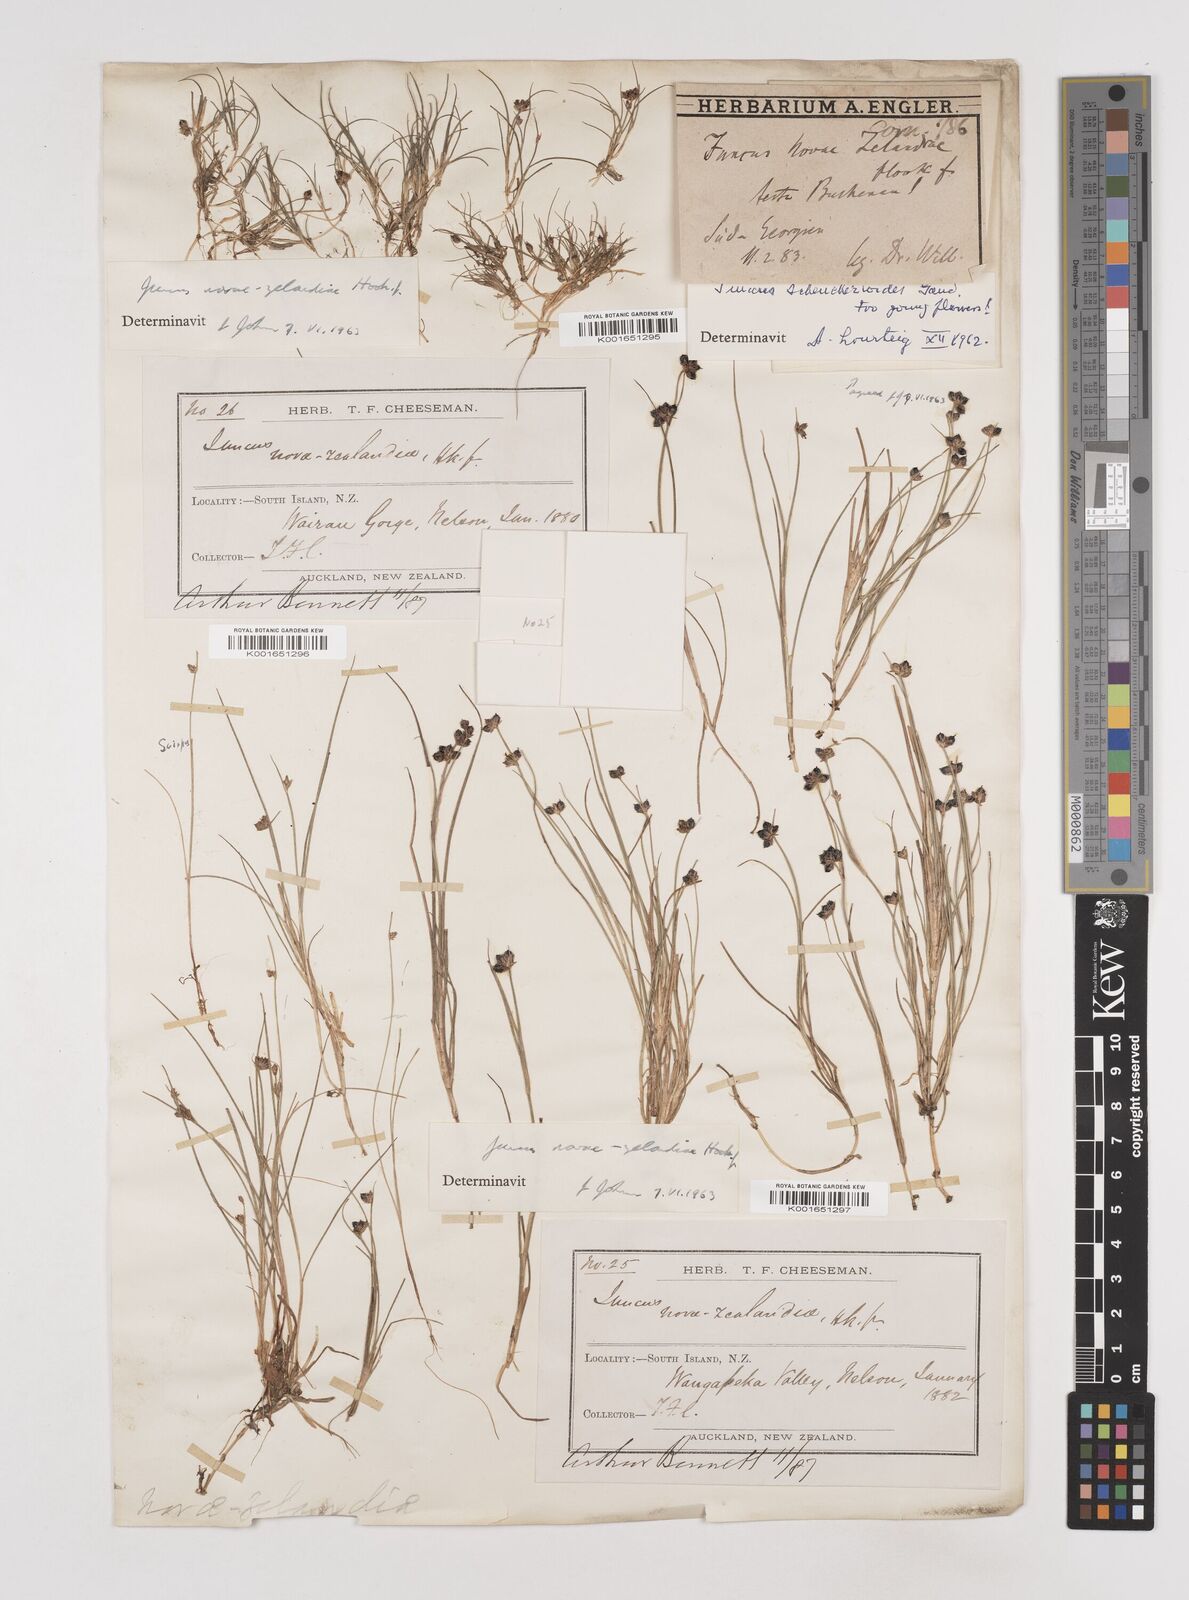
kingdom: Plantae
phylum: Tracheophyta
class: Liliopsida
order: Poales
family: Juncaceae
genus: Juncus
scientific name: Juncus novae-zelandiae
